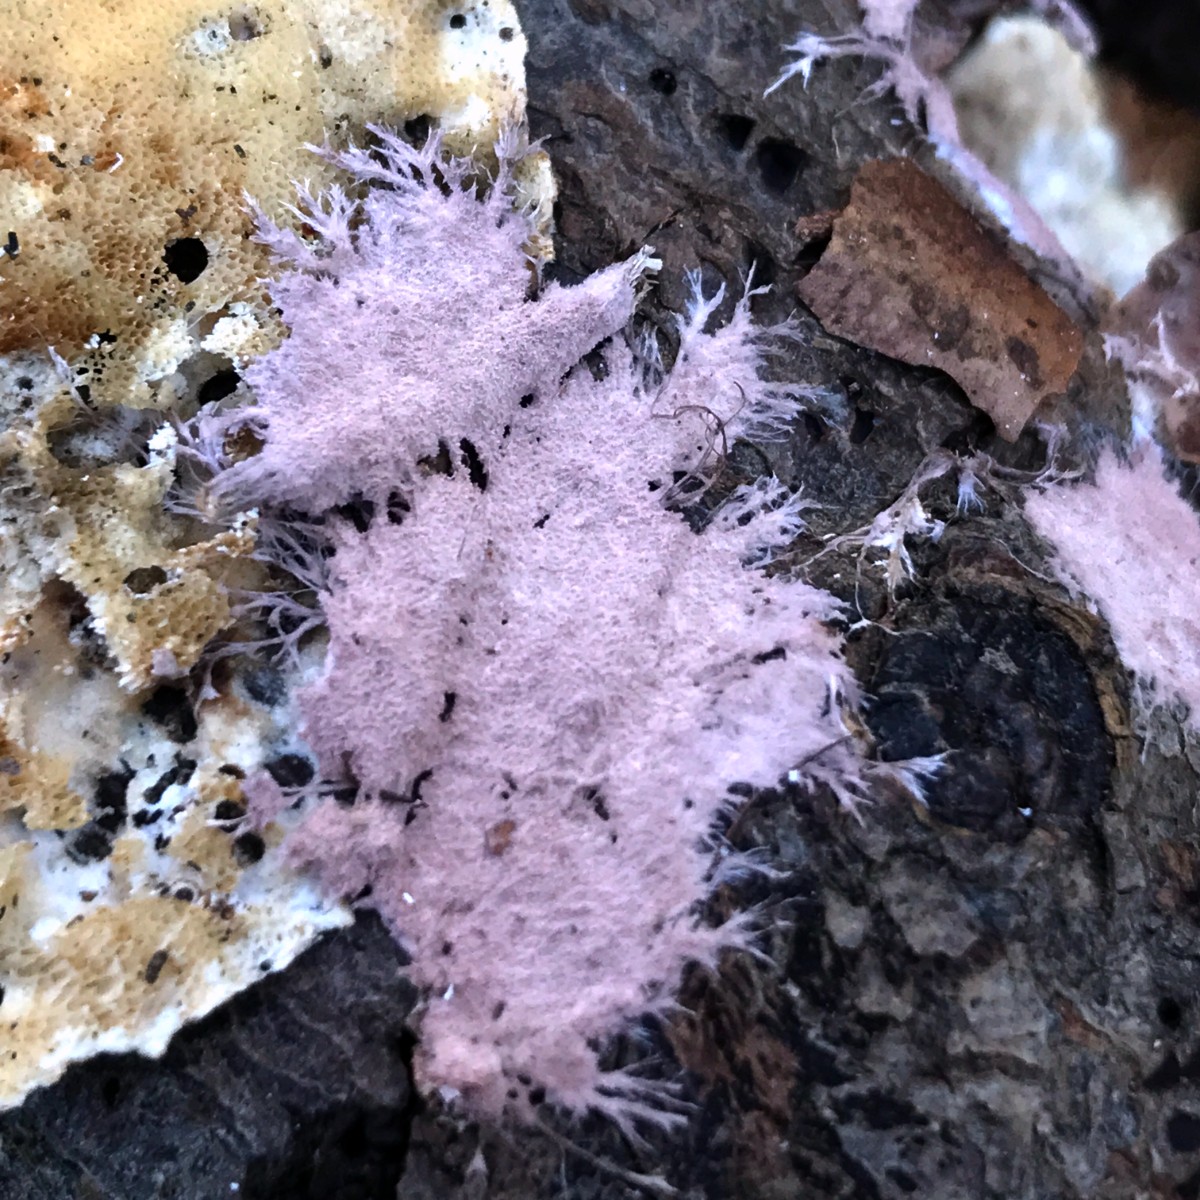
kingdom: Fungi
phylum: Basidiomycota
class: Agaricomycetes
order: Polyporales
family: Steccherinaceae
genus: Steccherinum
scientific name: Steccherinum fimbriatum
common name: trådet skønpig
